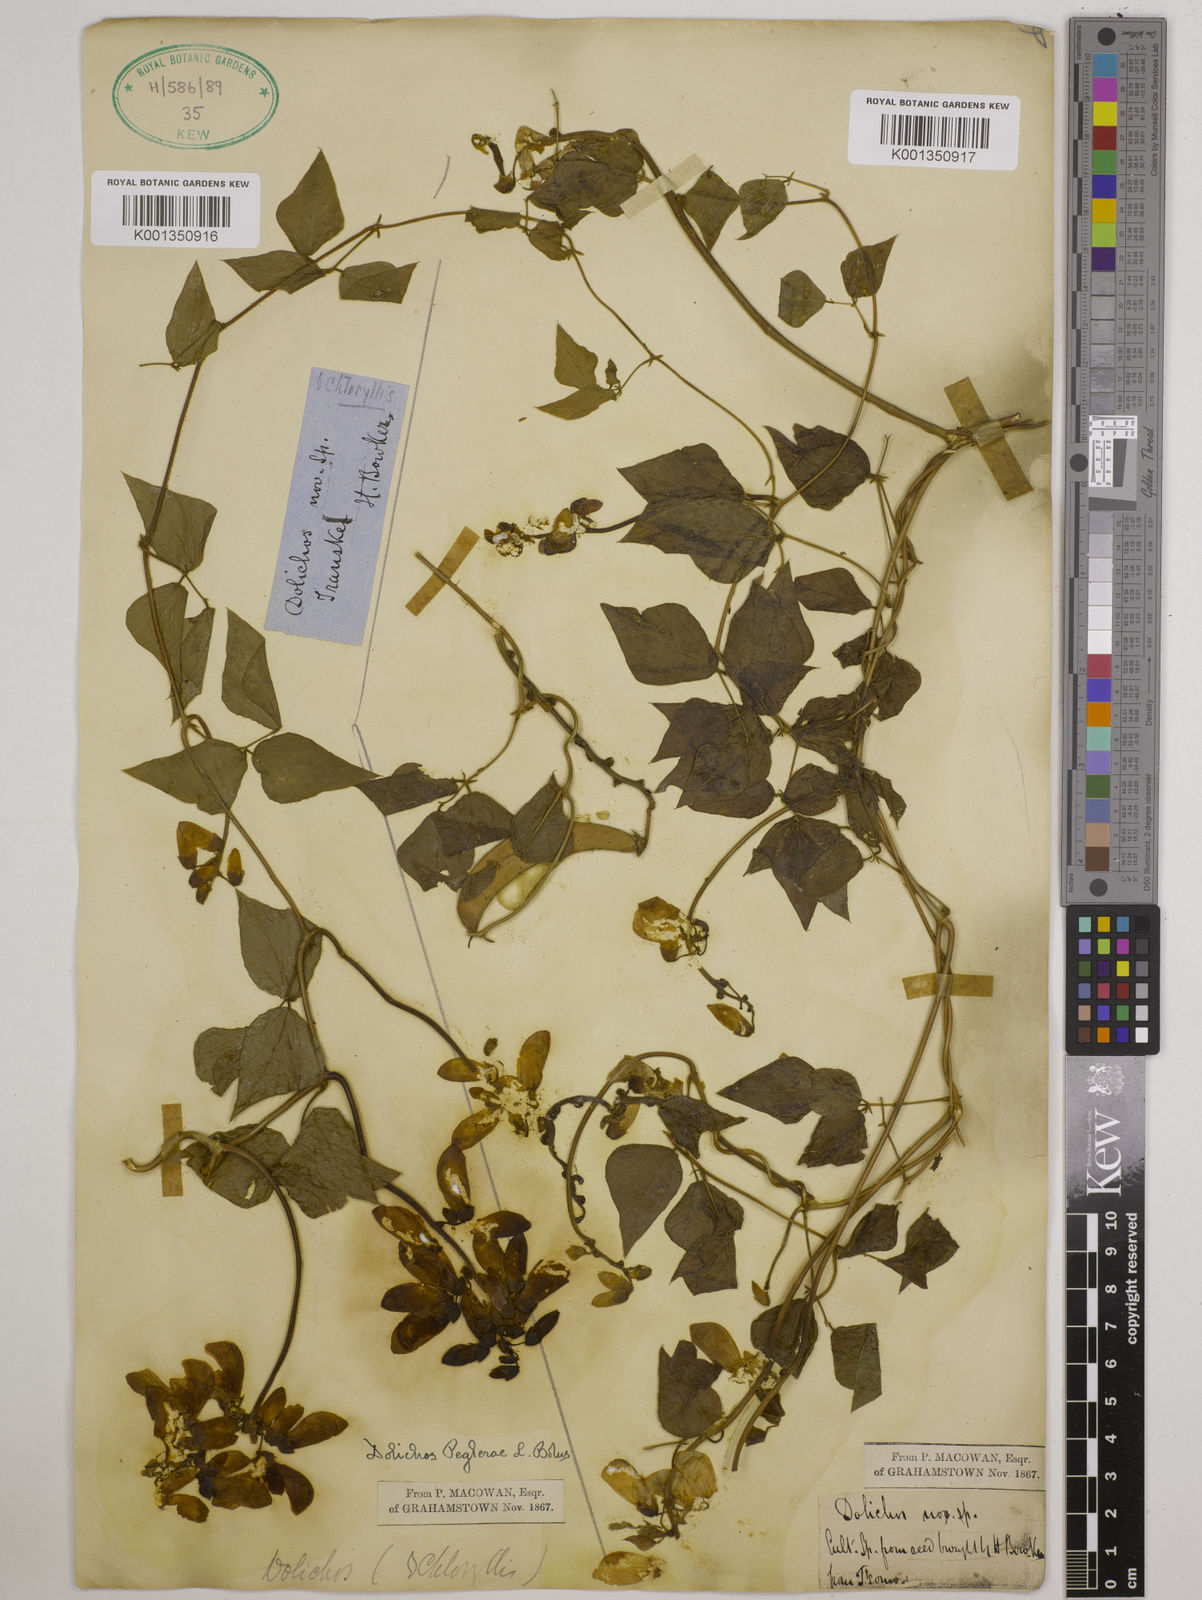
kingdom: Plantae
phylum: Tracheophyta
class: Magnoliopsida
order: Fabales
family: Fabaceae
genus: Dolichos
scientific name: Dolichos peglerae
